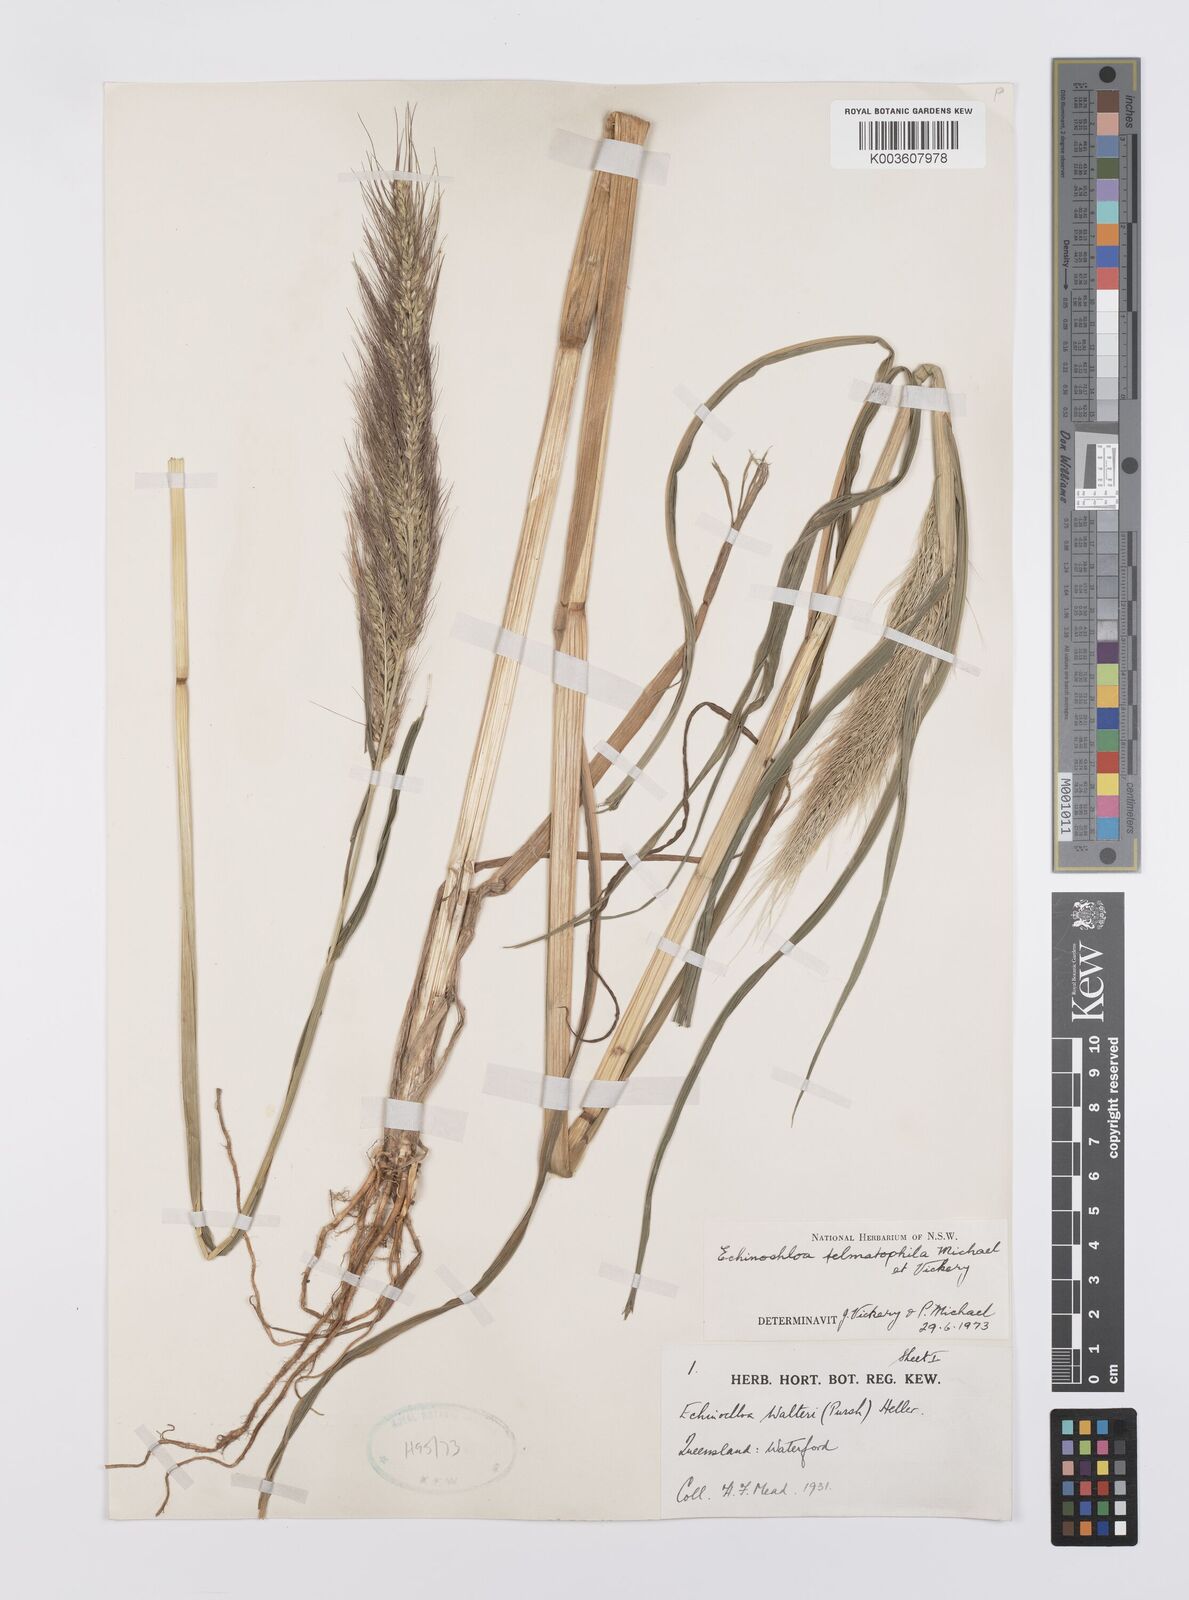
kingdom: Plantae
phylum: Tracheophyta
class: Liliopsida
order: Poales
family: Poaceae
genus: Echinochloa
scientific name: Echinochloa crus-galli
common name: Cockspur
